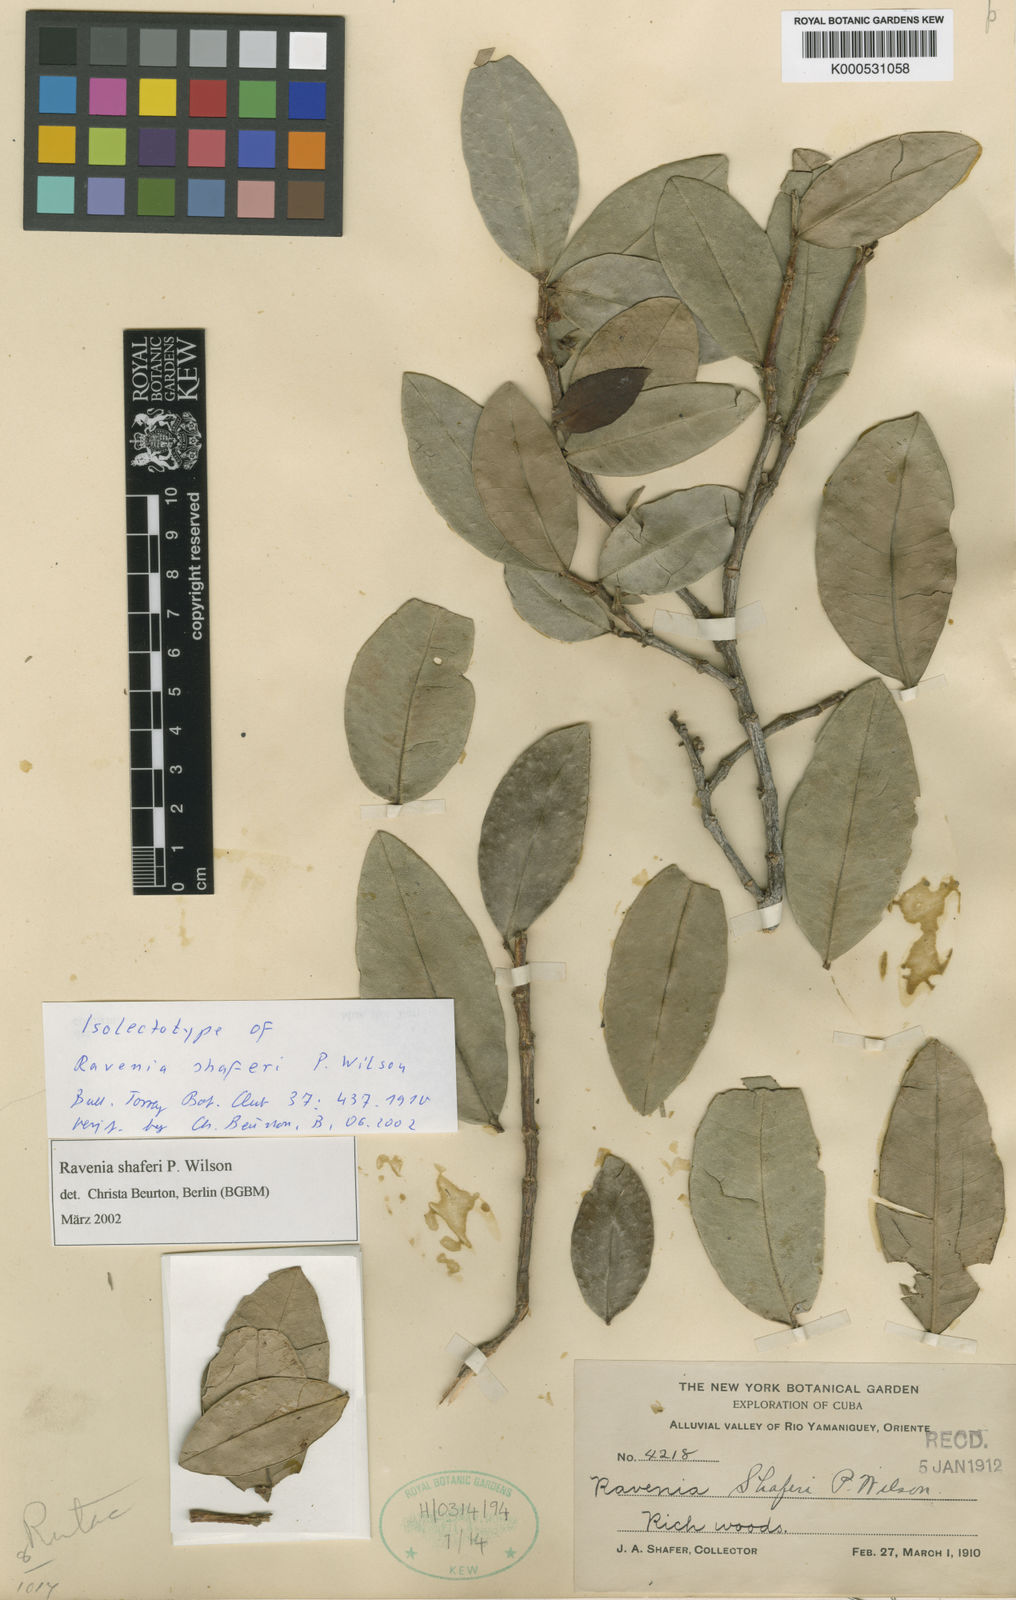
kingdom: Plantae
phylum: Tracheophyta
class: Magnoliopsida
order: Sapindales
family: Rutaceae
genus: Ravenia
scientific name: Ravenia shaferi
